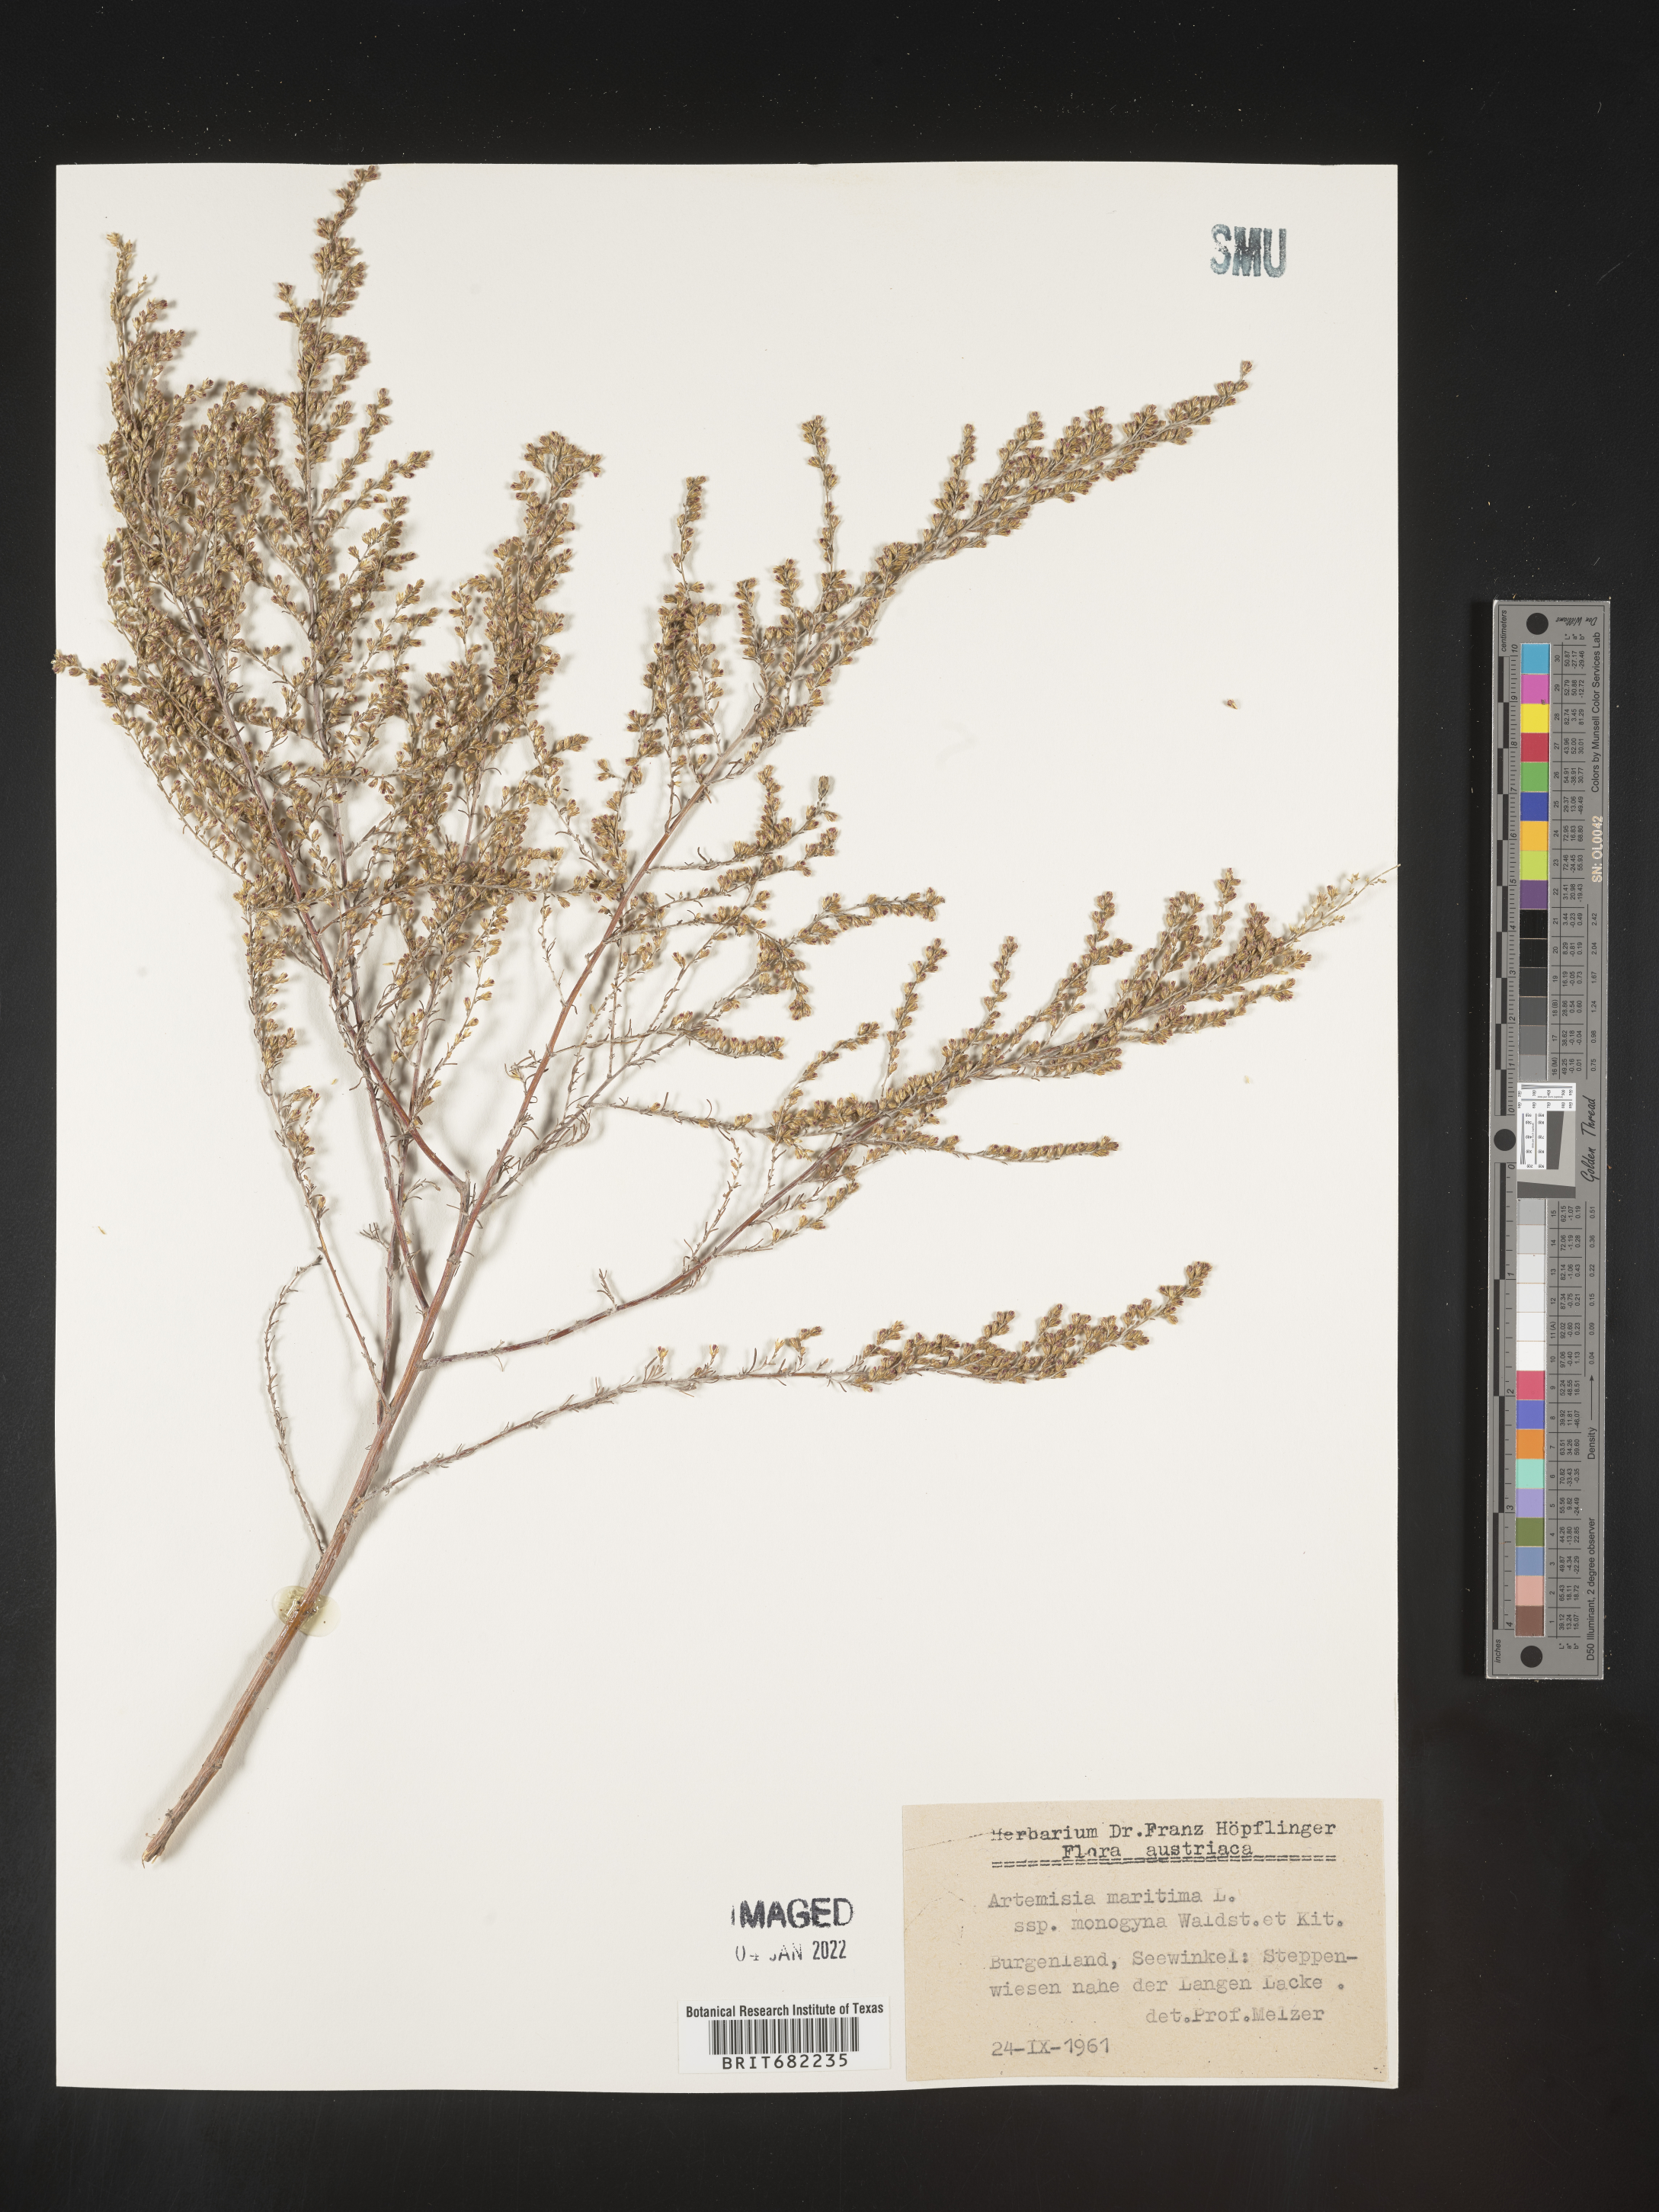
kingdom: Plantae
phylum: Tracheophyta
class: Magnoliopsida
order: Asterales
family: Asteraceae
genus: Artemisia
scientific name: Artemisia
